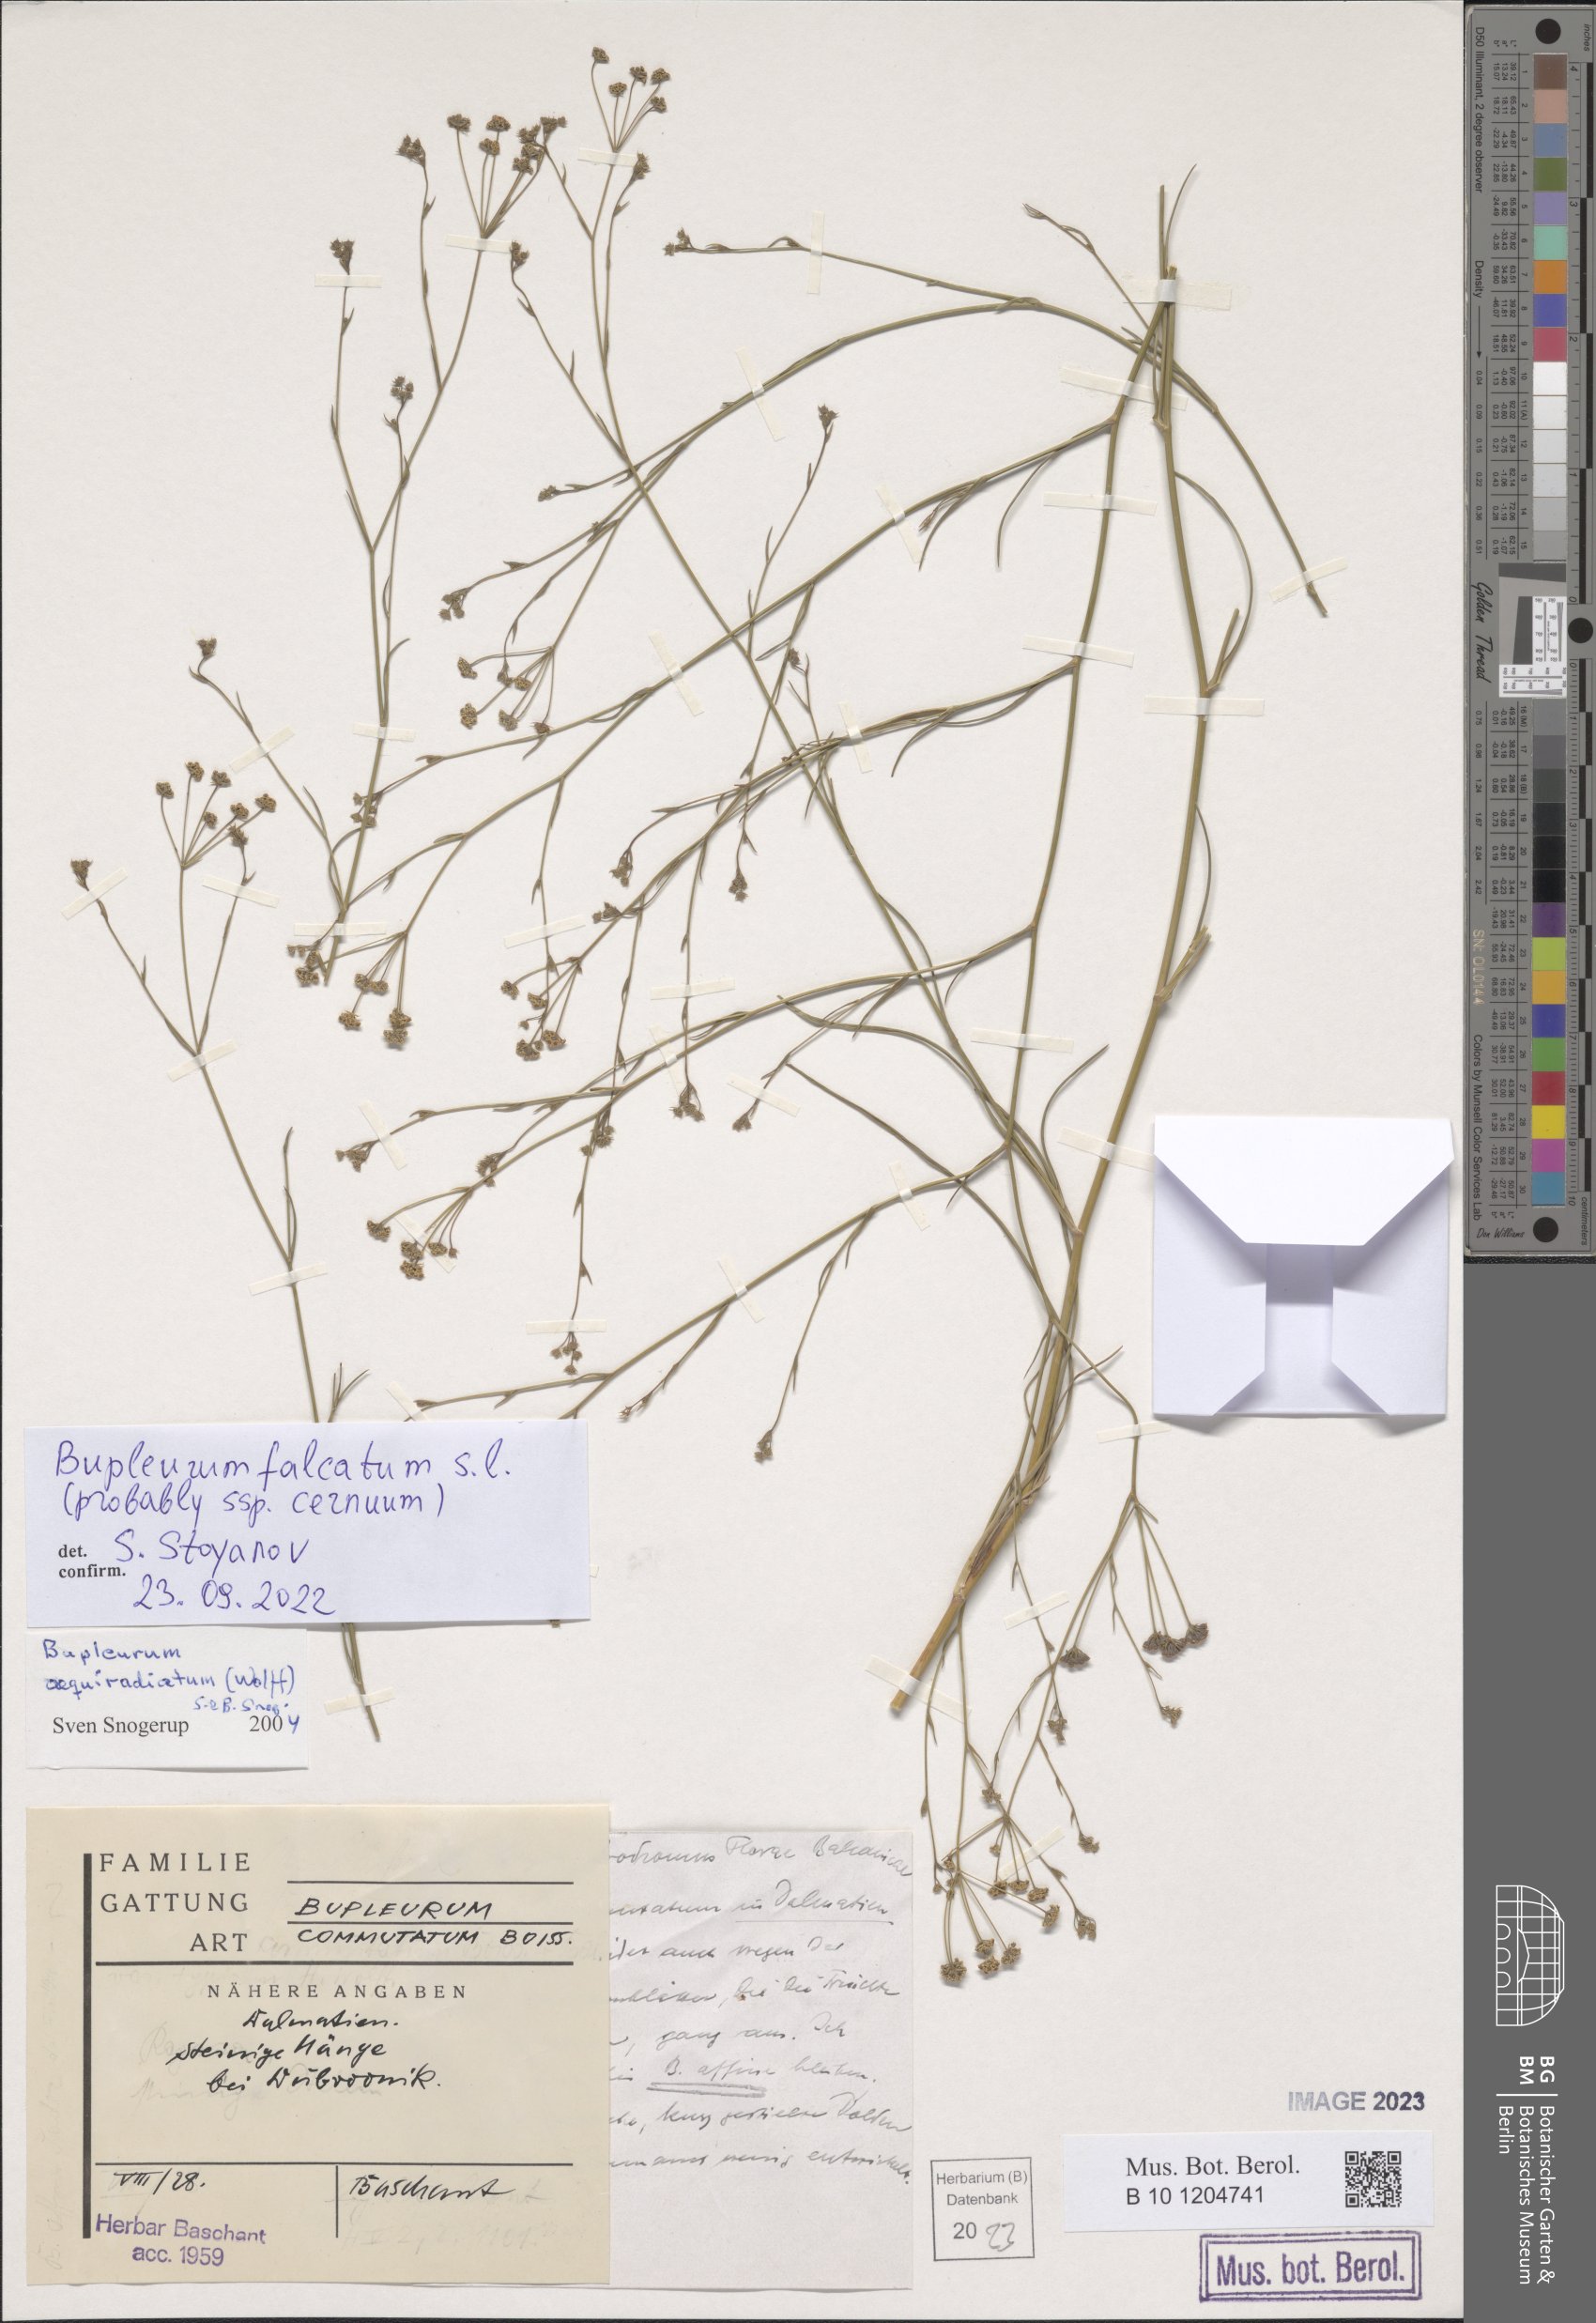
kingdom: Plantae
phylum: Tracheophyta
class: Magnoliopsida
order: Apiales
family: Apiaceae
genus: Bupleurum
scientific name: Bupleurum falcatum
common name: Sickle-leaved hare's-ear
